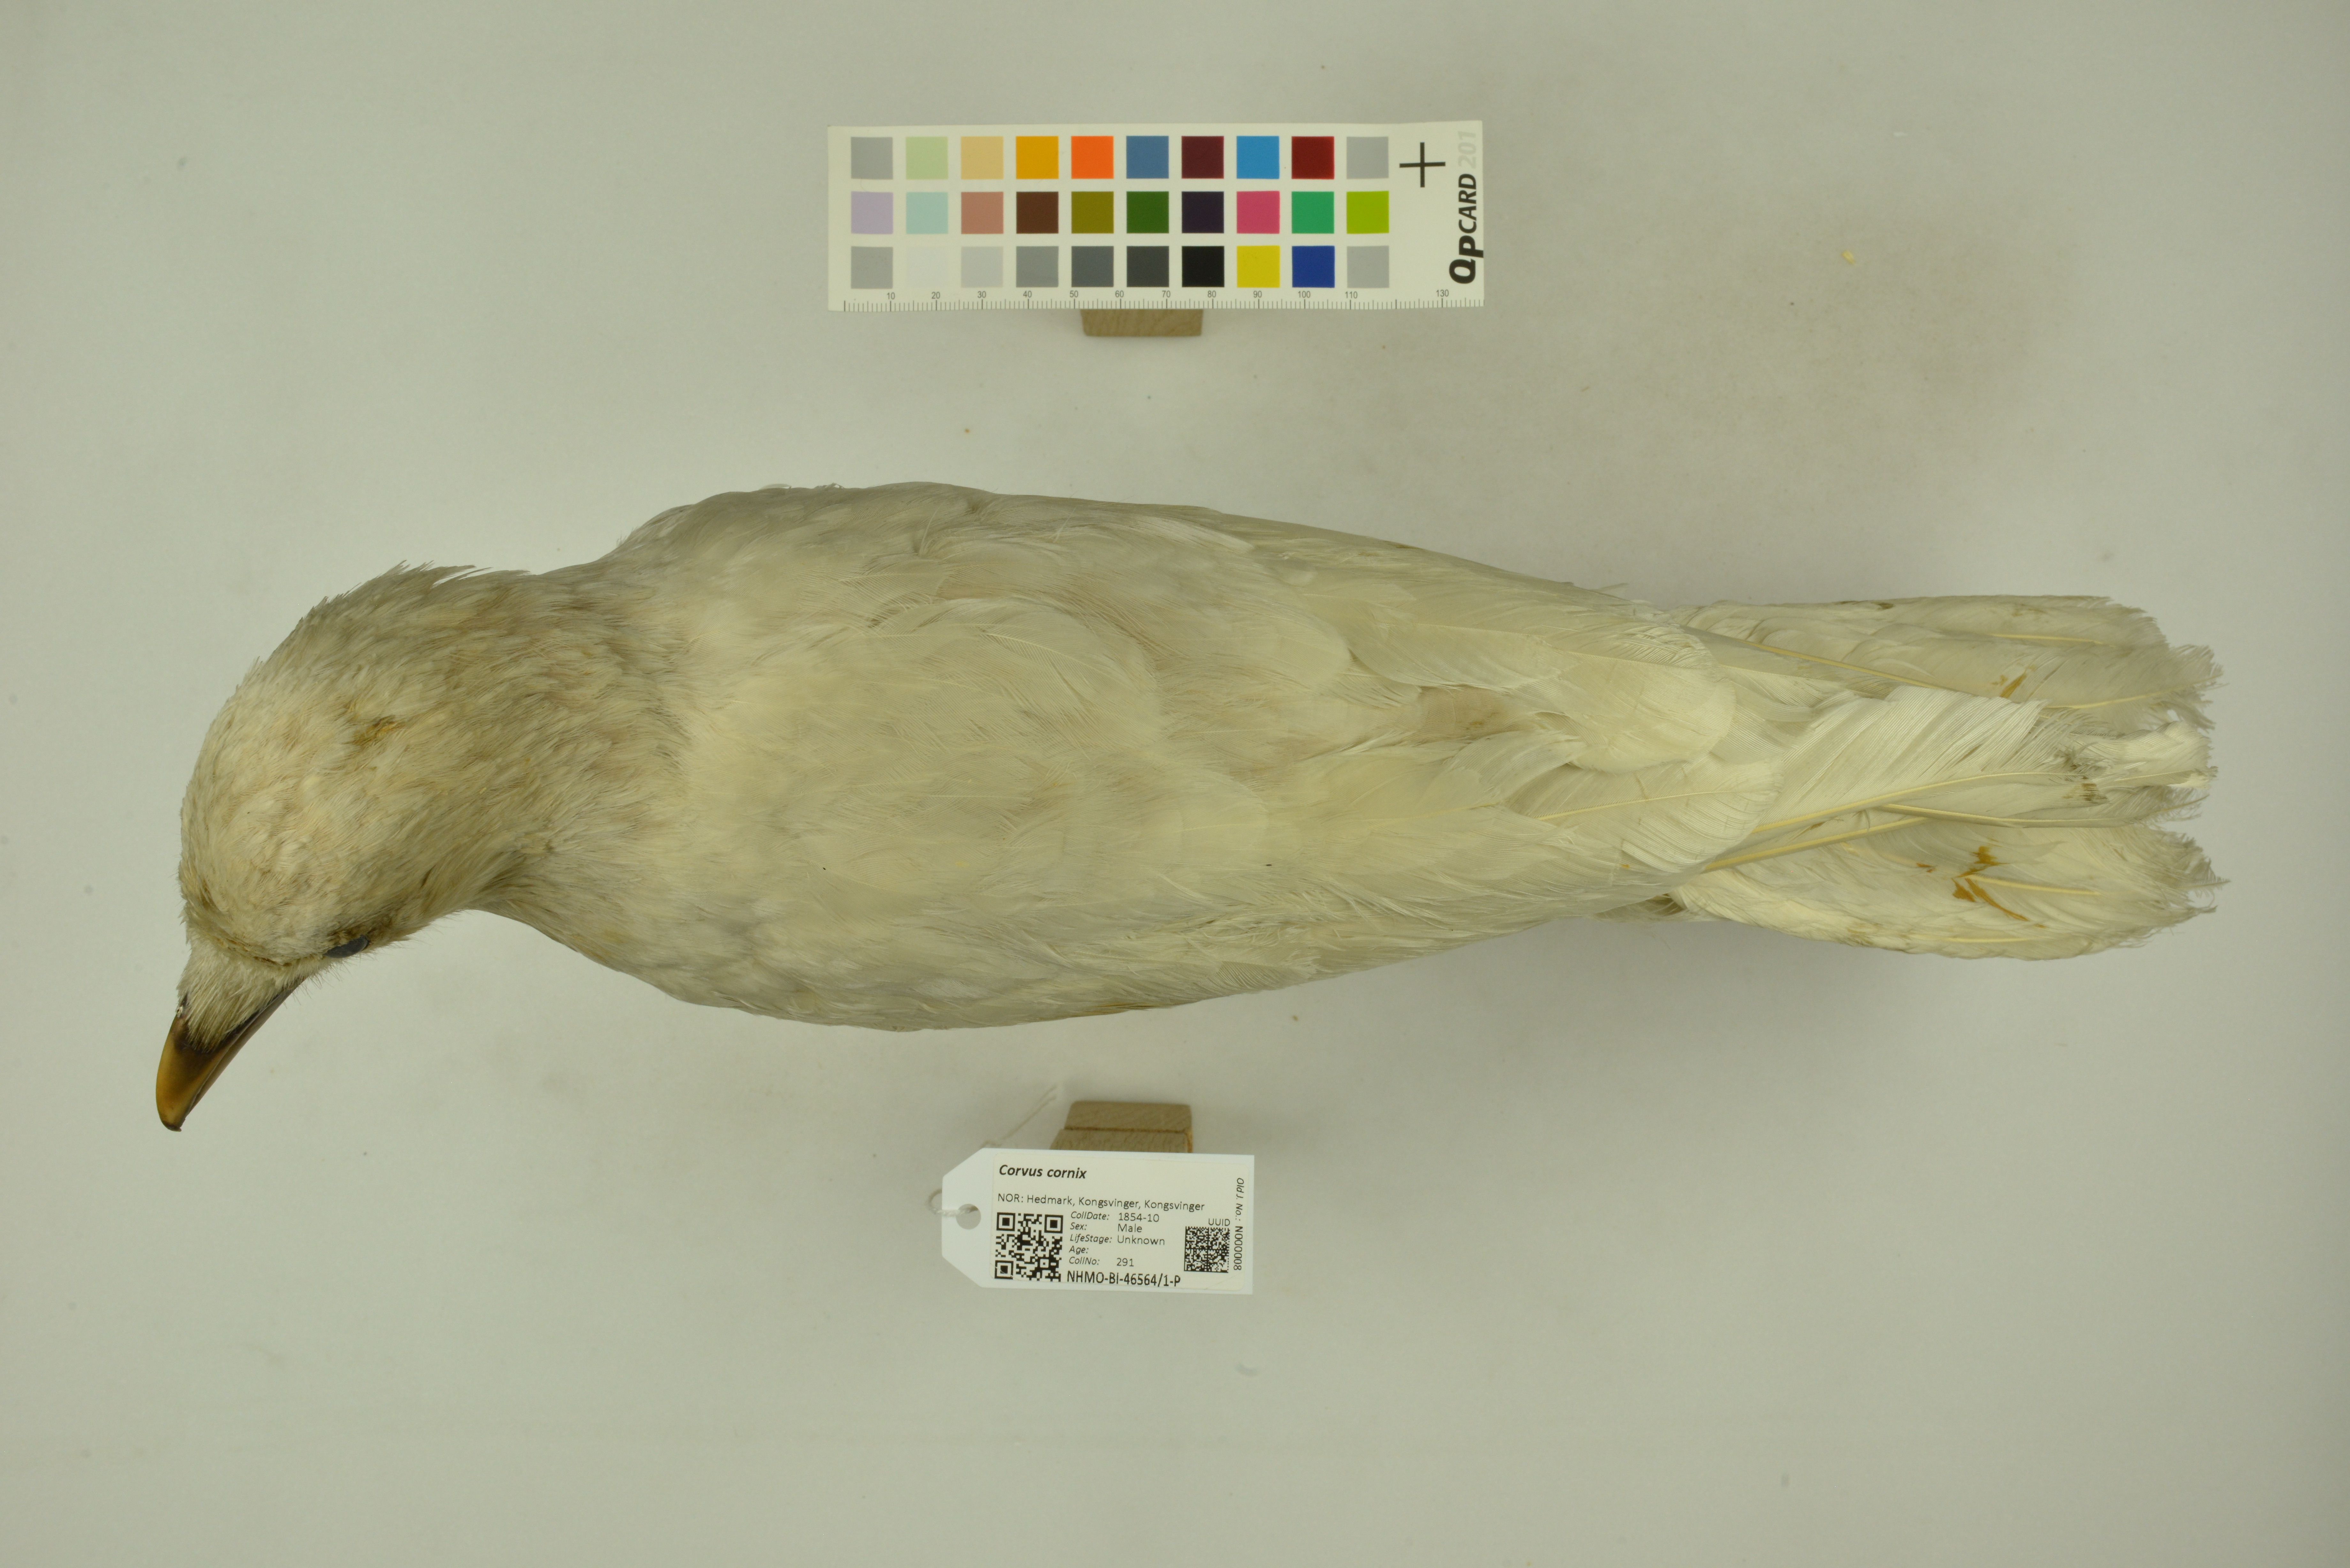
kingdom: Animalia
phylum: Chordata
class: Aves
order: Passeriformes
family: Corvidae
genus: Corvus
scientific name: Corvus cornix
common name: Hooded crow
